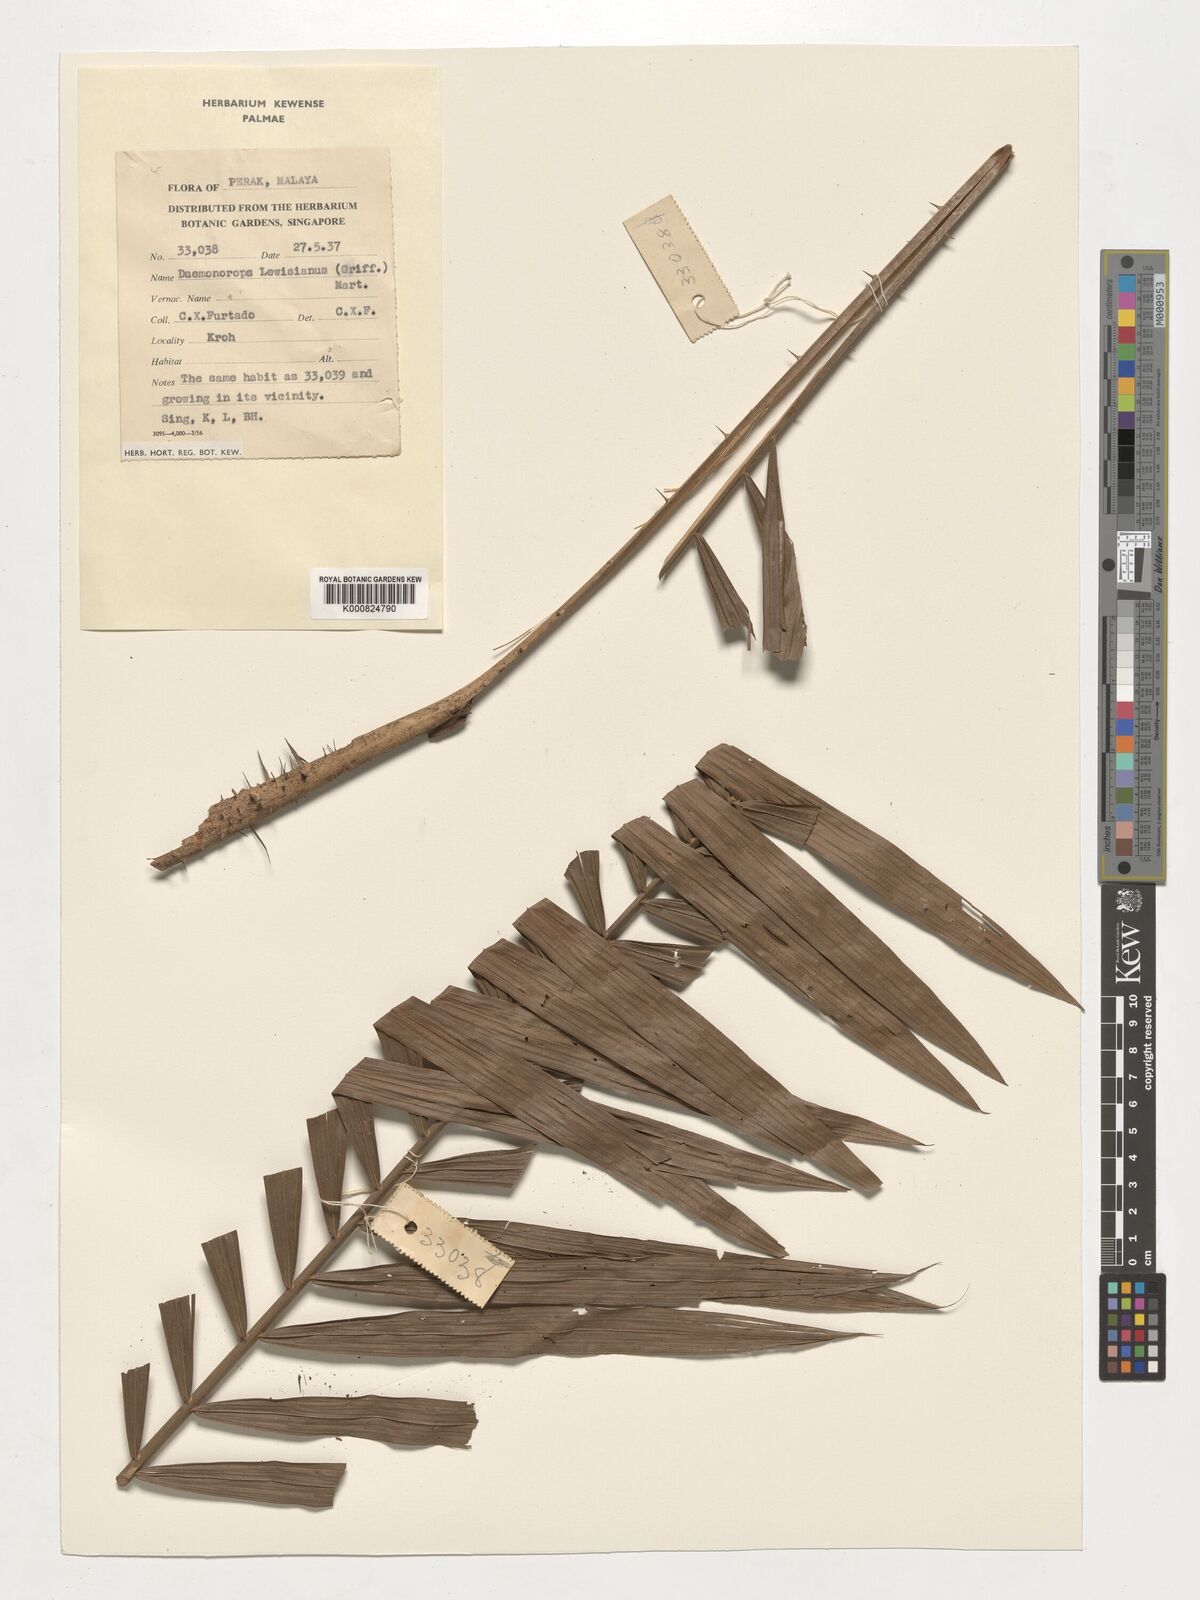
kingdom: Plantae
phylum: Tracheophyta
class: Liliopsida
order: Arecales
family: Arecaceae
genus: Calamus
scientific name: Calamus melanochaetes
